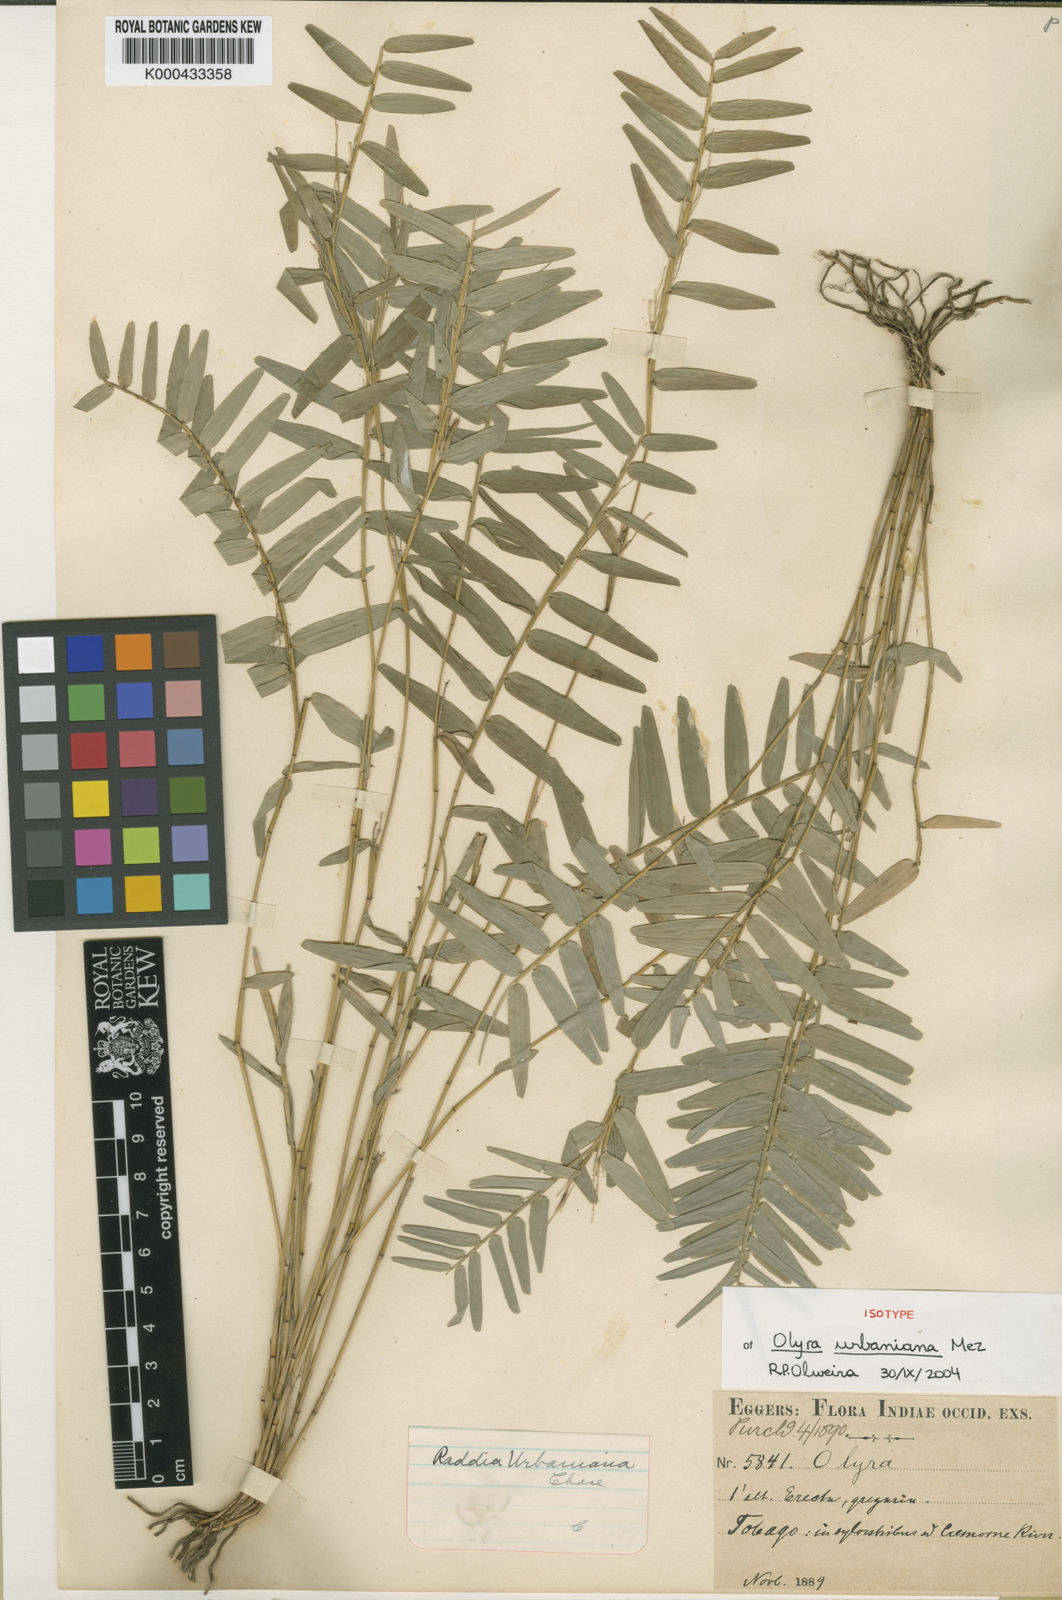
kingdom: Plantae
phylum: Tracheophyta
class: Liliopsida
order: Poales
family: Poaceae
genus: Raddia
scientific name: Raddia guianensis
